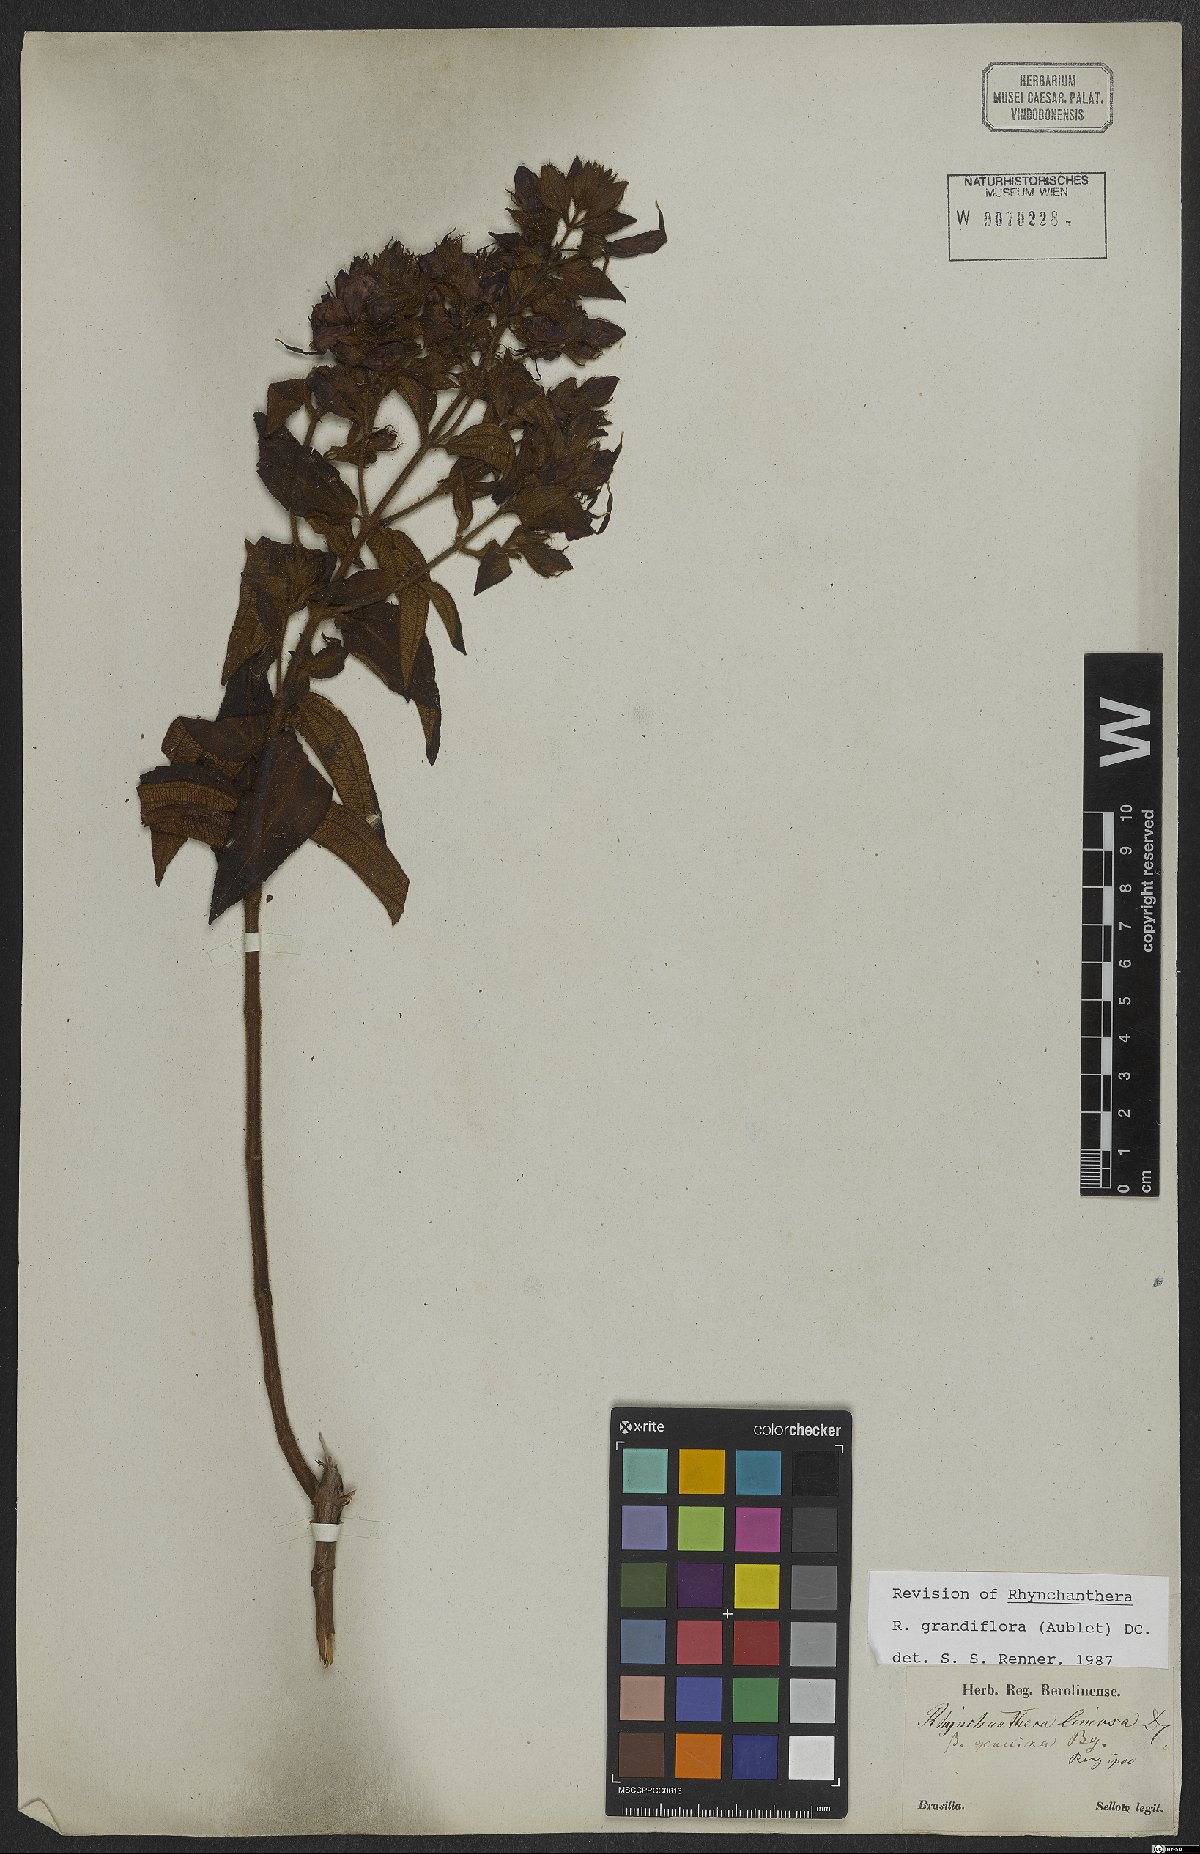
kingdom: Plantae
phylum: Tracheophyta
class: Magnoliopsida
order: Myrtales
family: Melastomataceae
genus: Rhynchanthera
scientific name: Rhynchanthera grandiflora
